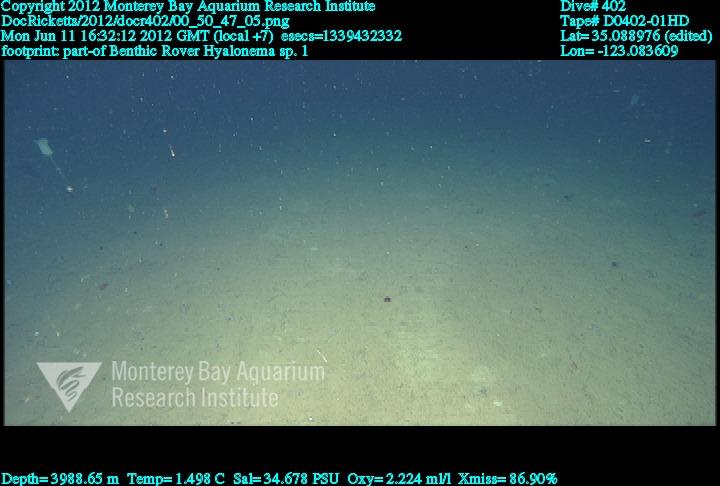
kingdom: Animalia
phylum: Porifera
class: Hexactinellida
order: Amphidiscosida
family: Hyalonematidae
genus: Hyalonema
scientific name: Hyalonema
